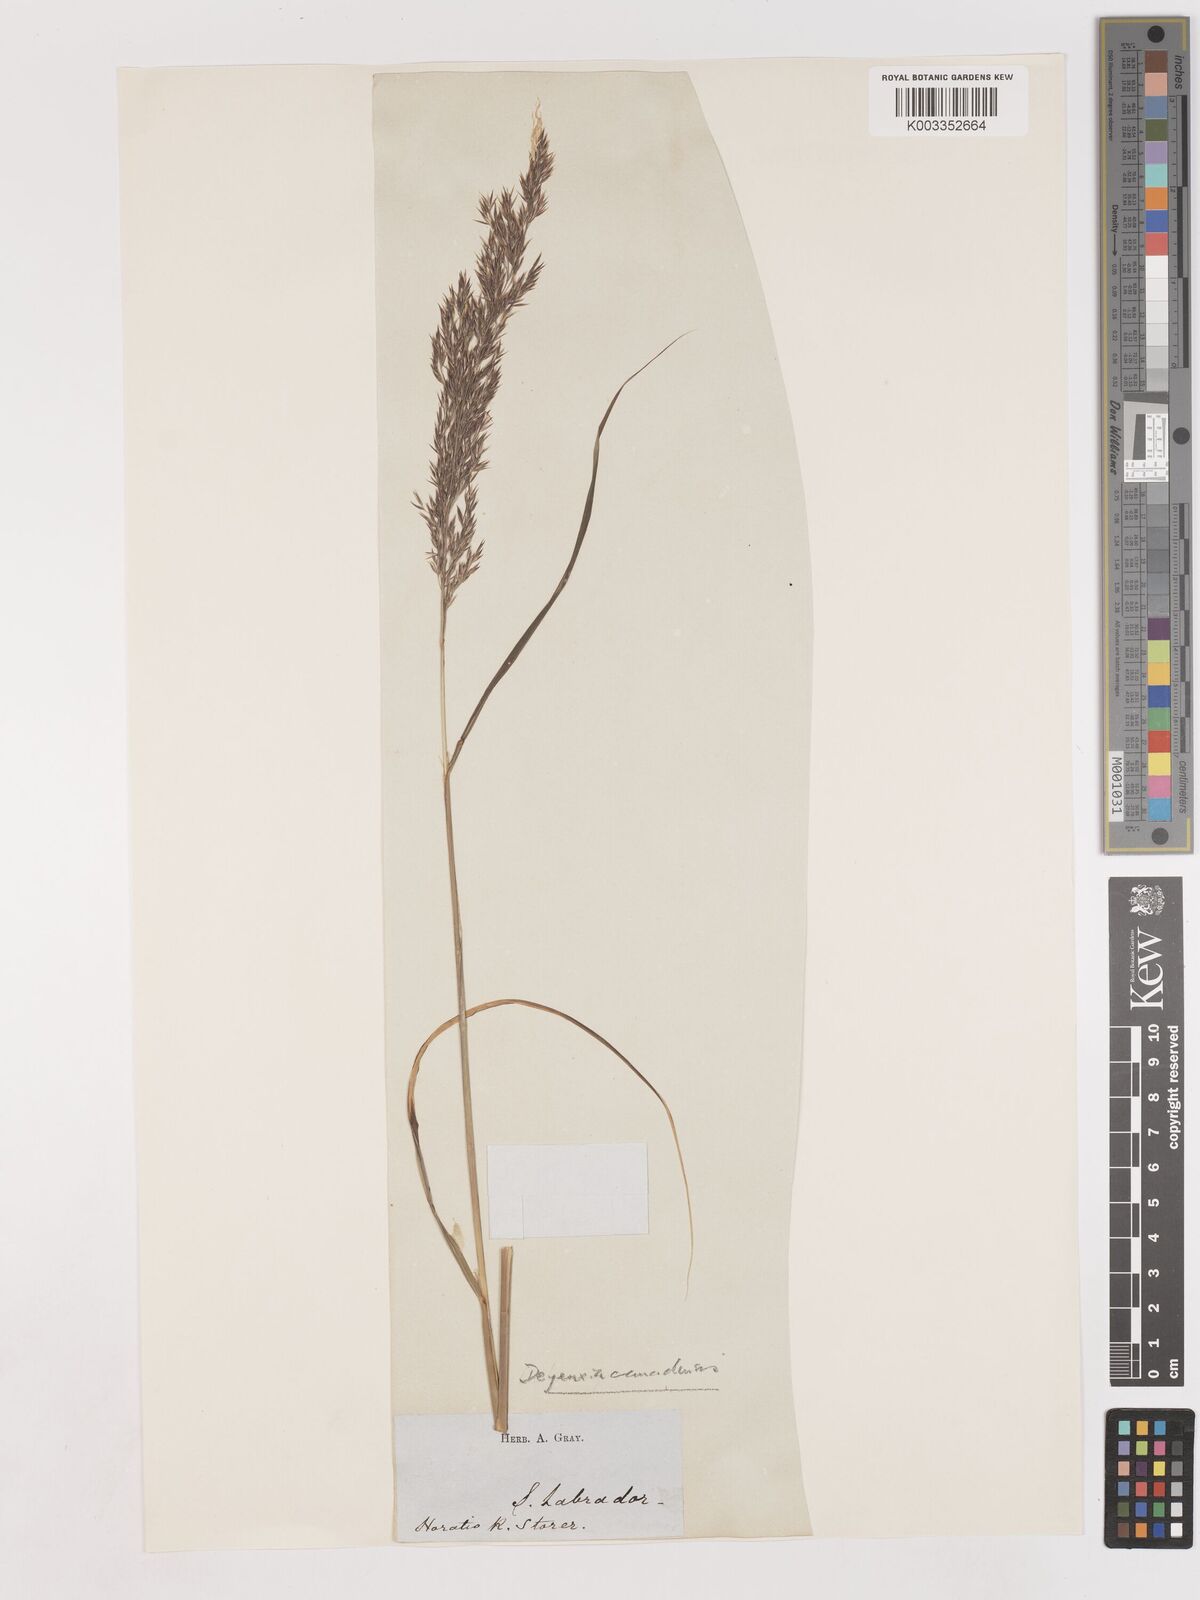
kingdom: Plantae
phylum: Tracheophyta
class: Liliopsida
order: Poales
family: Poaceae
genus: Calamagrostis
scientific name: Calamagrostis canadensis
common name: Canada bluejoint
